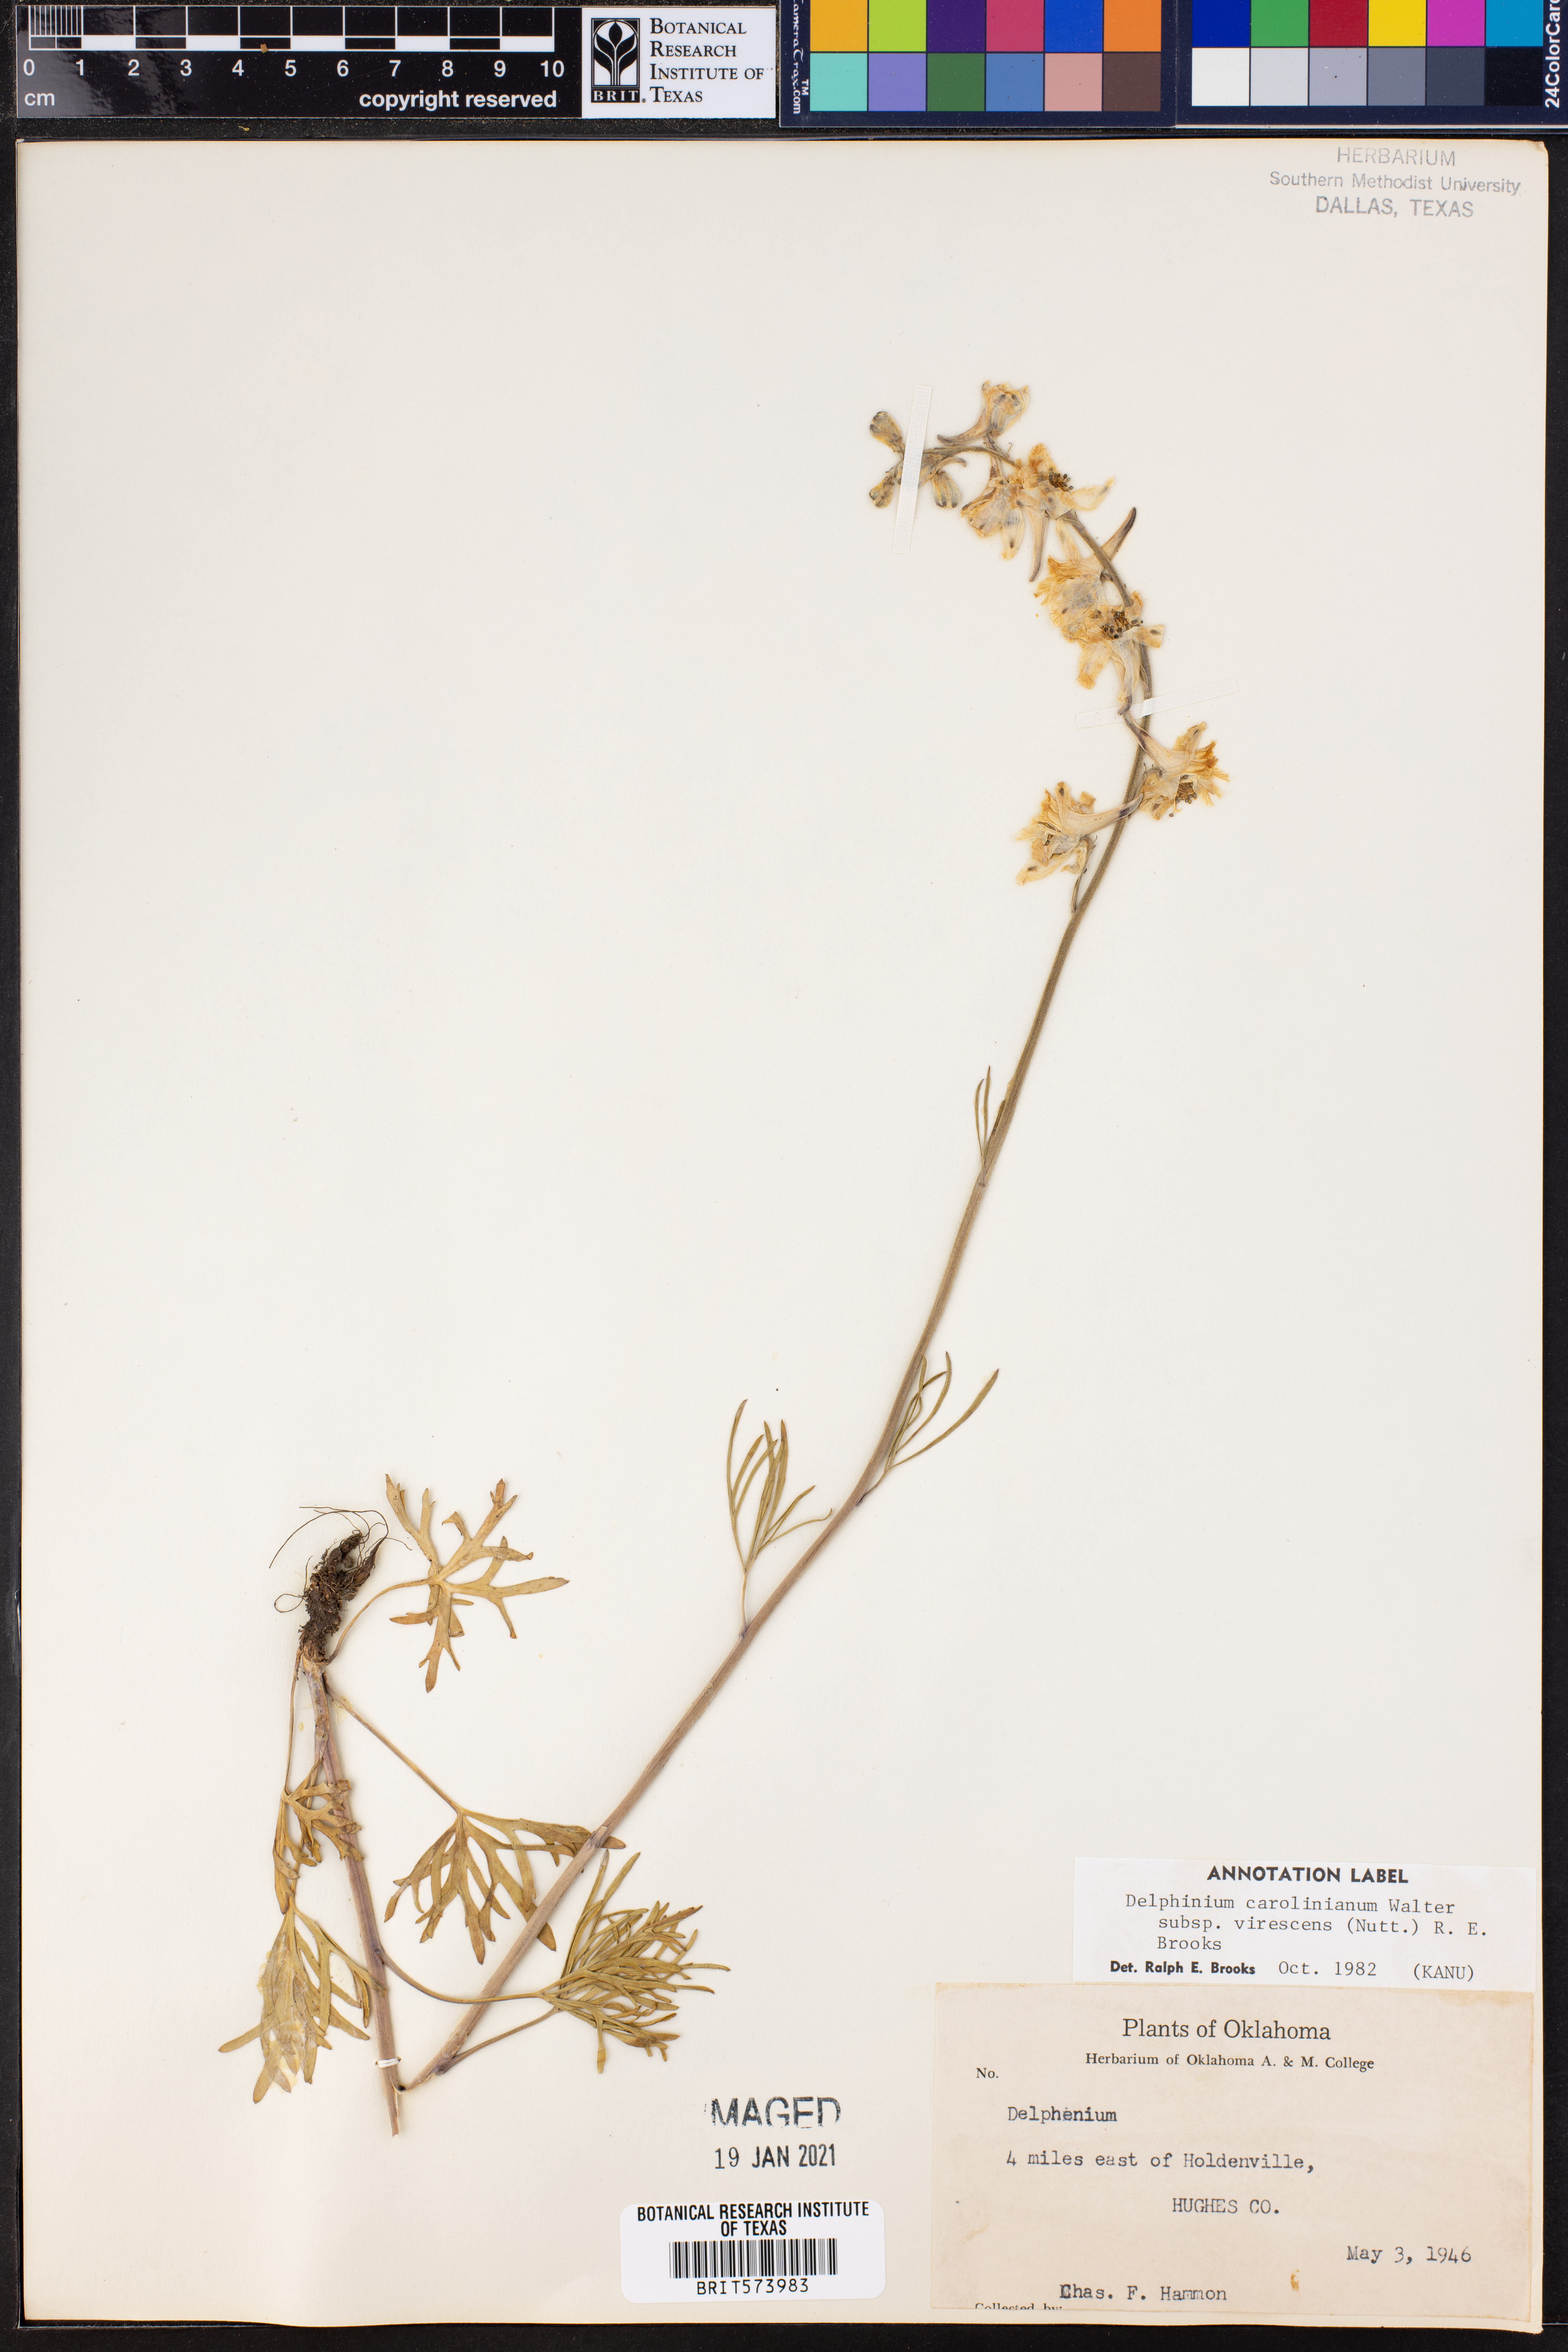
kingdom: Plantae
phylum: Tracheophyta
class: Magnoliopsida
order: Ranunculales
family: Ranunculaceae
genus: Delphinium
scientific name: Delphinium carolinianum
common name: Carolina larkspur
